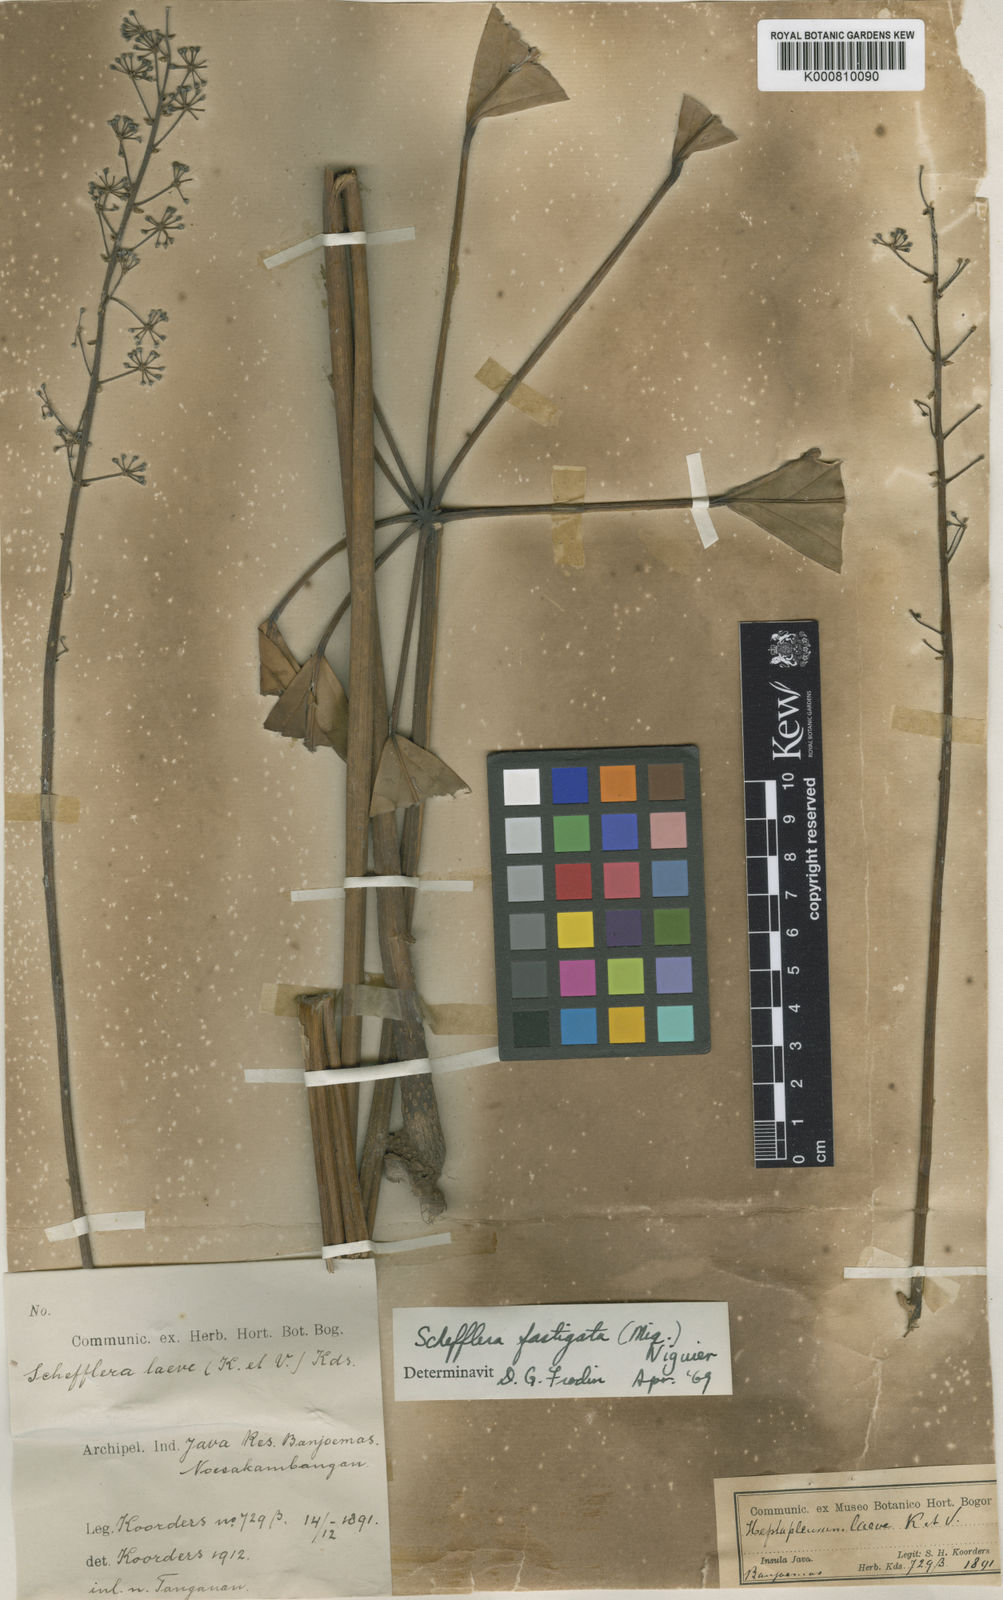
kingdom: Plantae
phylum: Tracheophyta
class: Magnoliopsida
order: Apiales
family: Araliaceae
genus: Heptapleurum
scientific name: Heptapleurum fastigiatum
